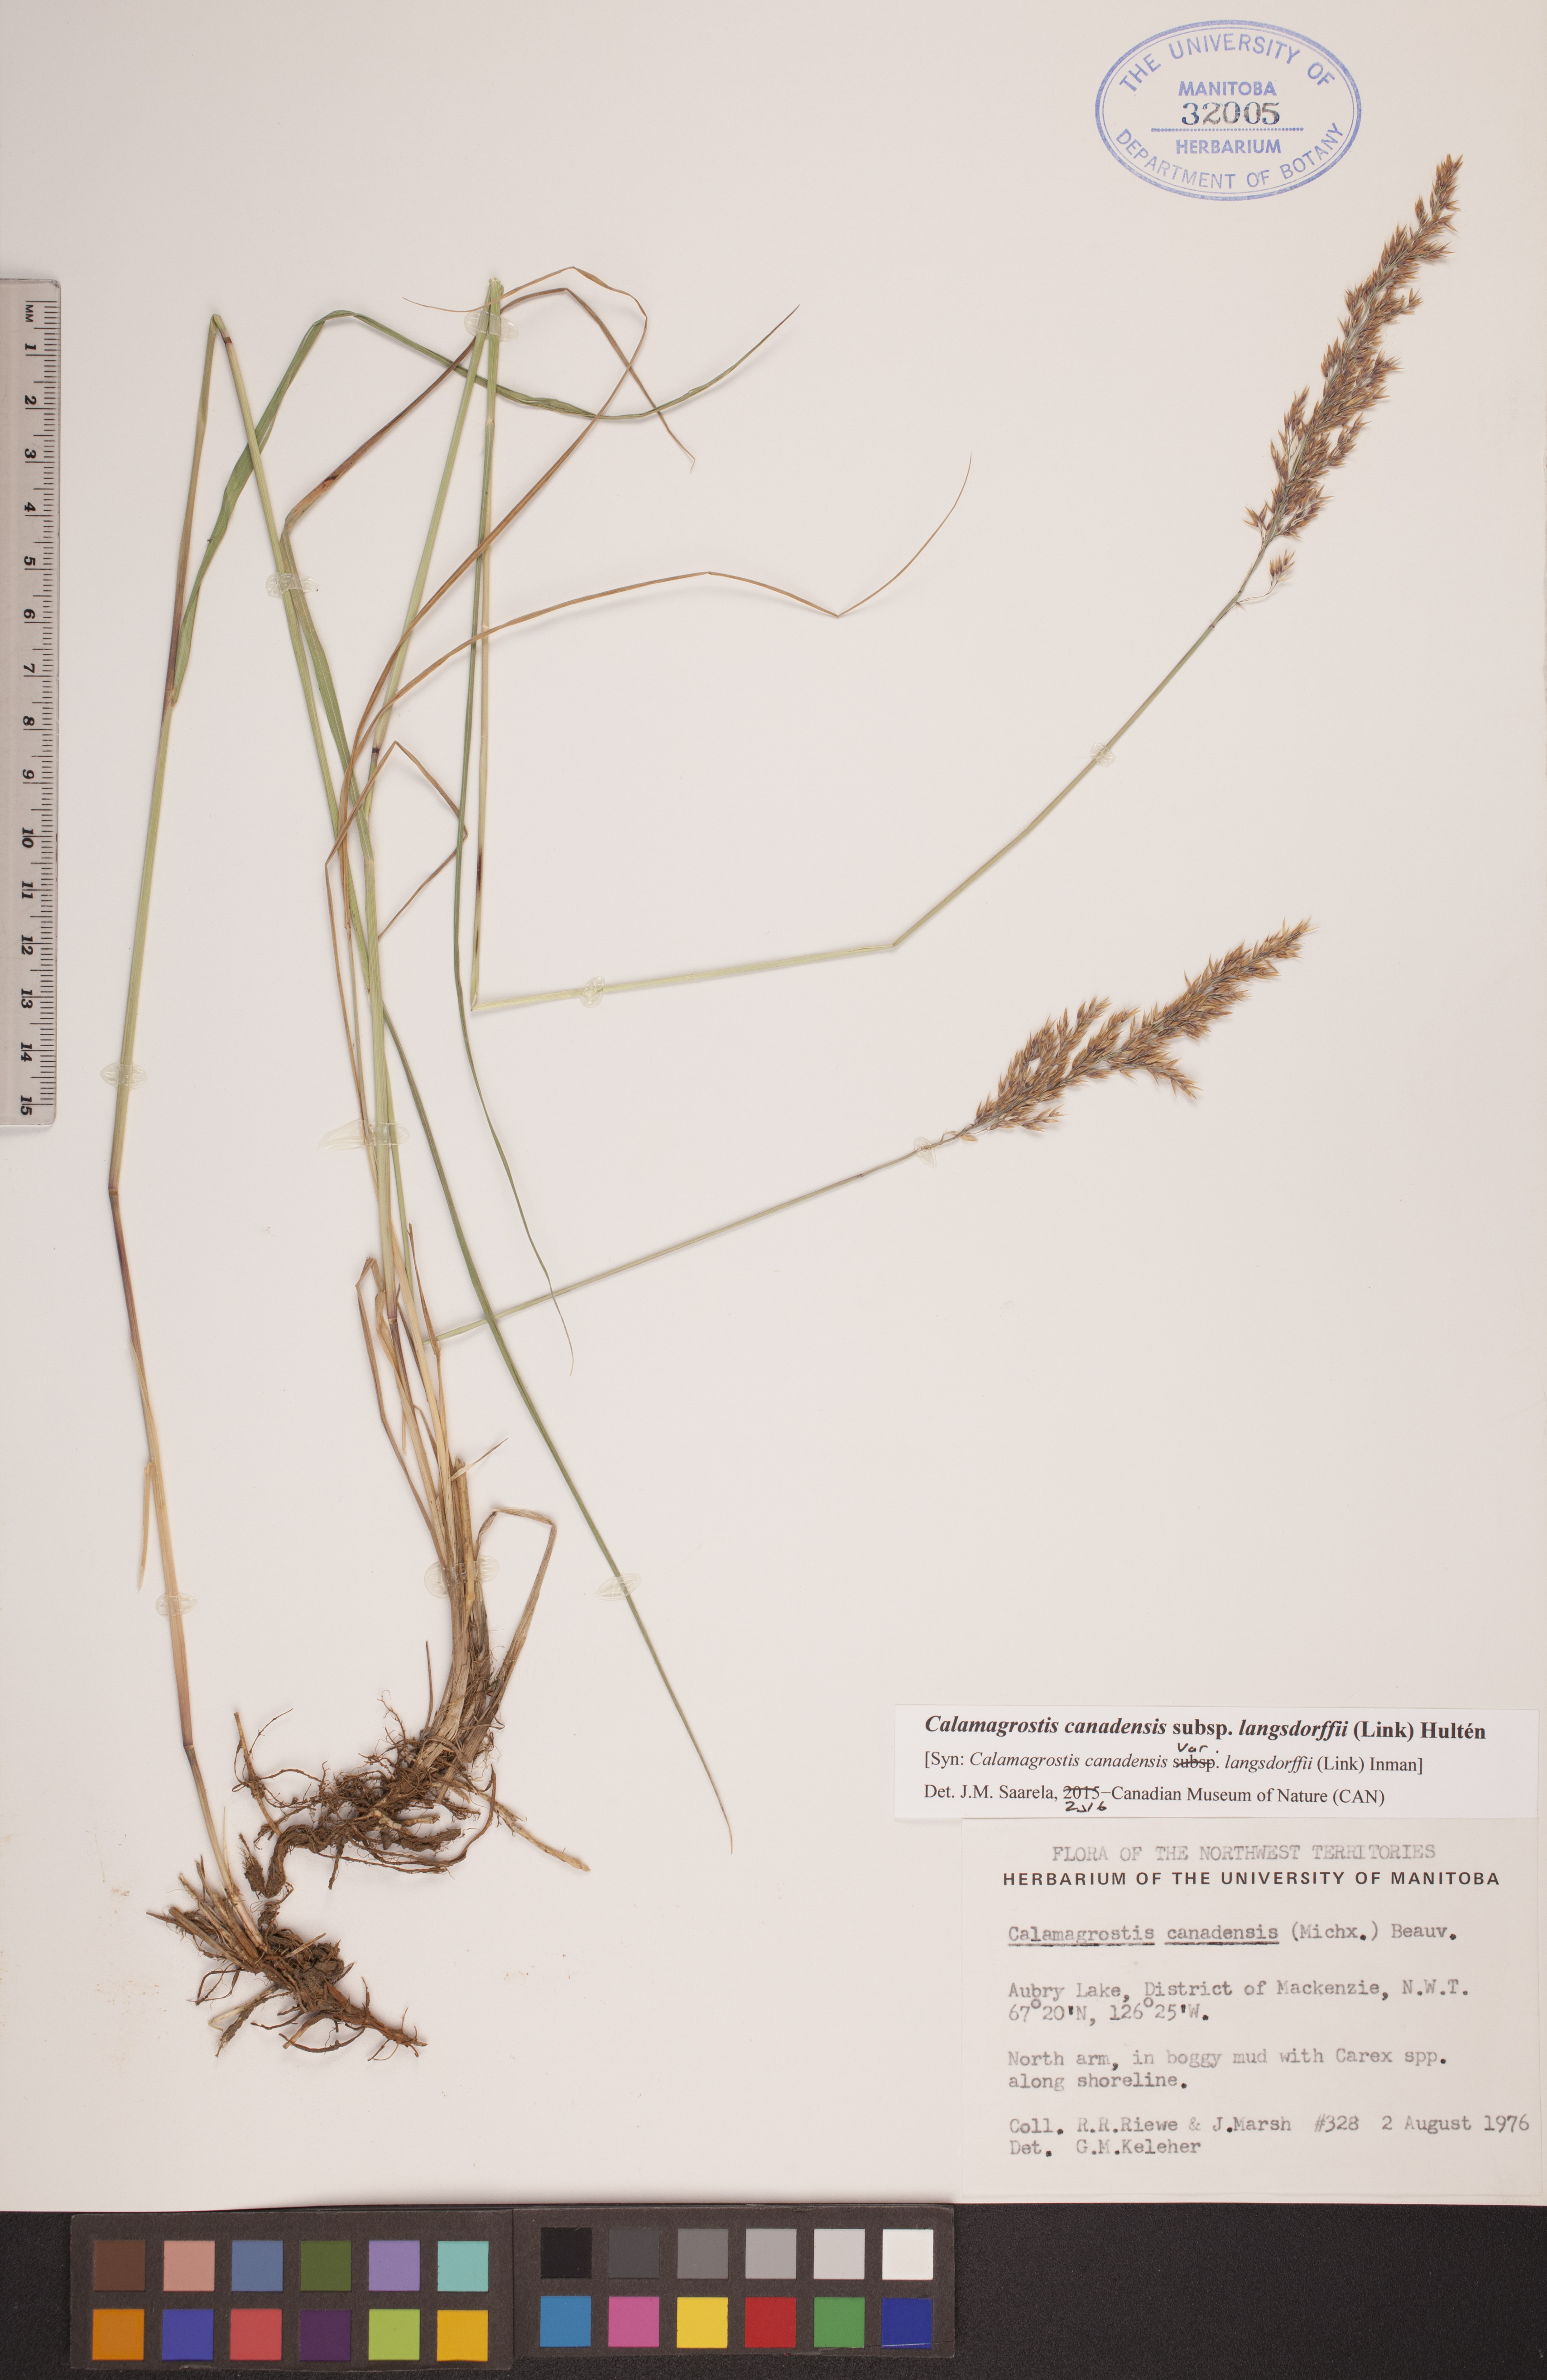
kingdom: Plantae
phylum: Tracheophyta
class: Liliopsida
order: Poales
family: Poaceae
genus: Calamagrostis
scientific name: Calamagrostis purpurea
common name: Scandinavian small-reed
